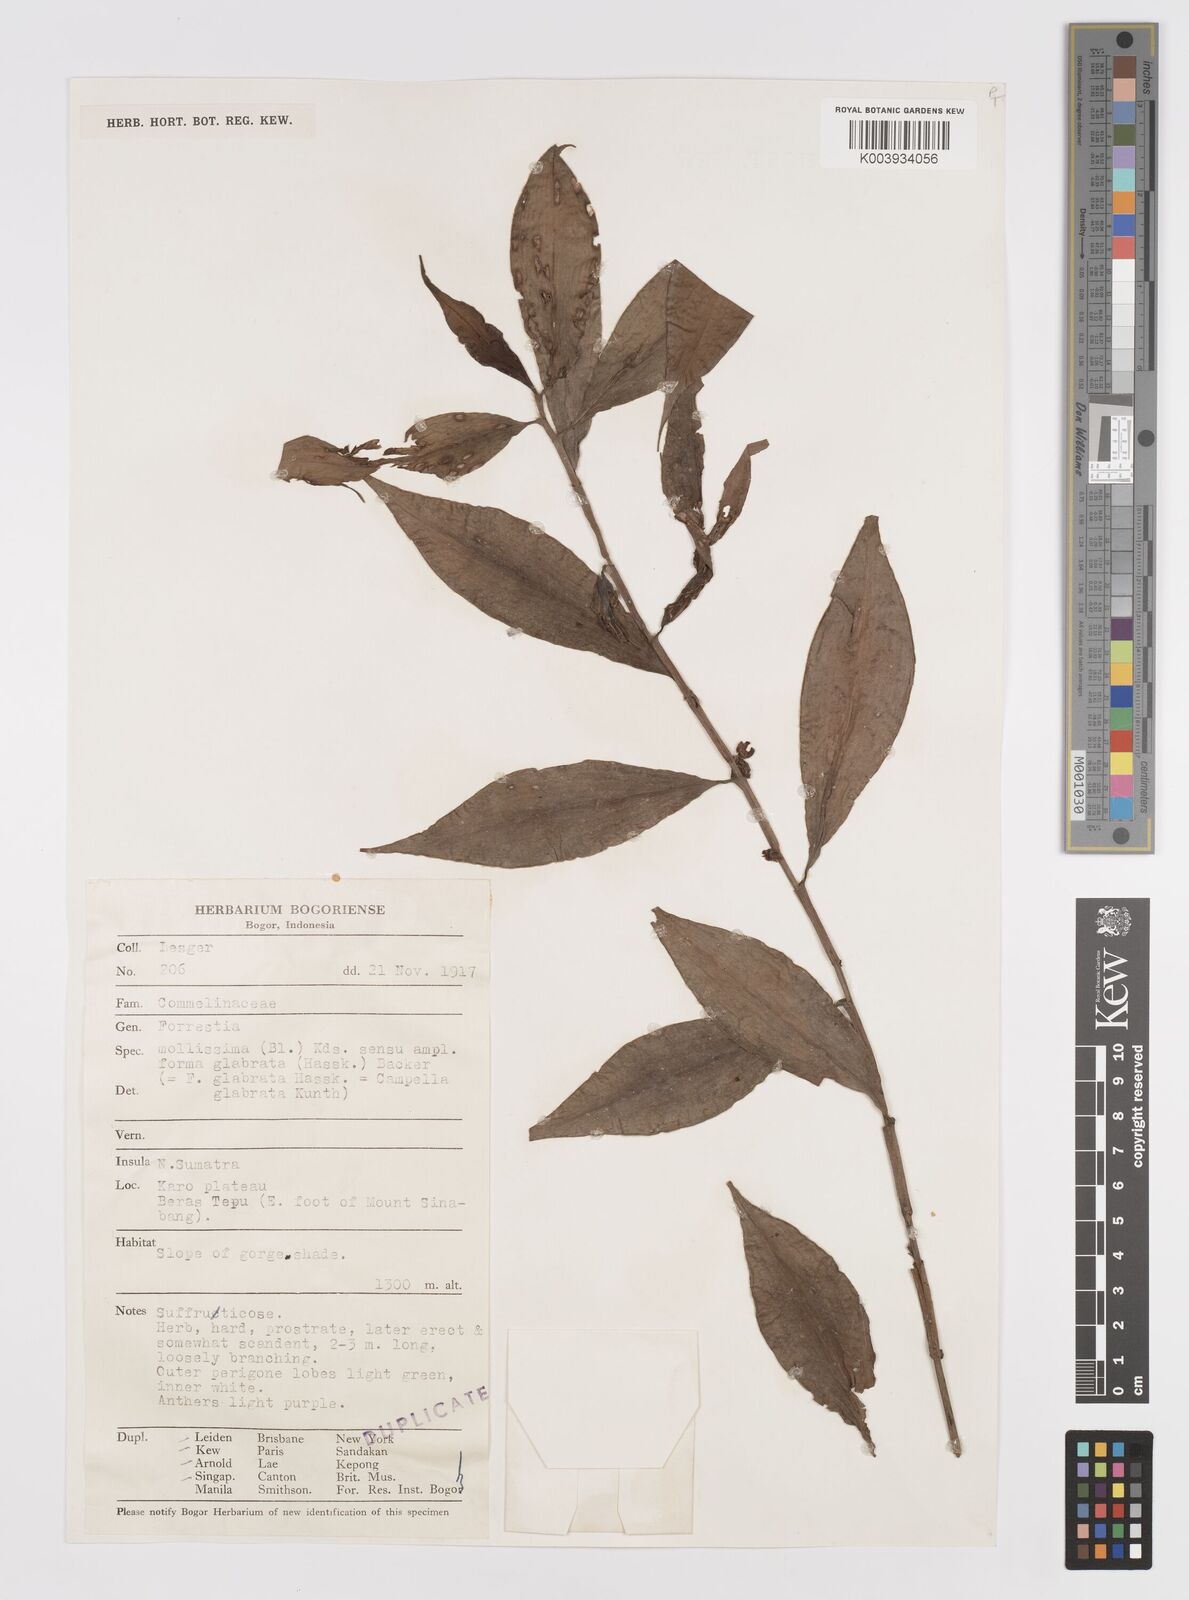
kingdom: Plantae
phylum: Tracheophyta
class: Liliopsida
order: Commelinales
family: Commelinaceae
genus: Amischotolype
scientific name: Amischotolype glabrata
